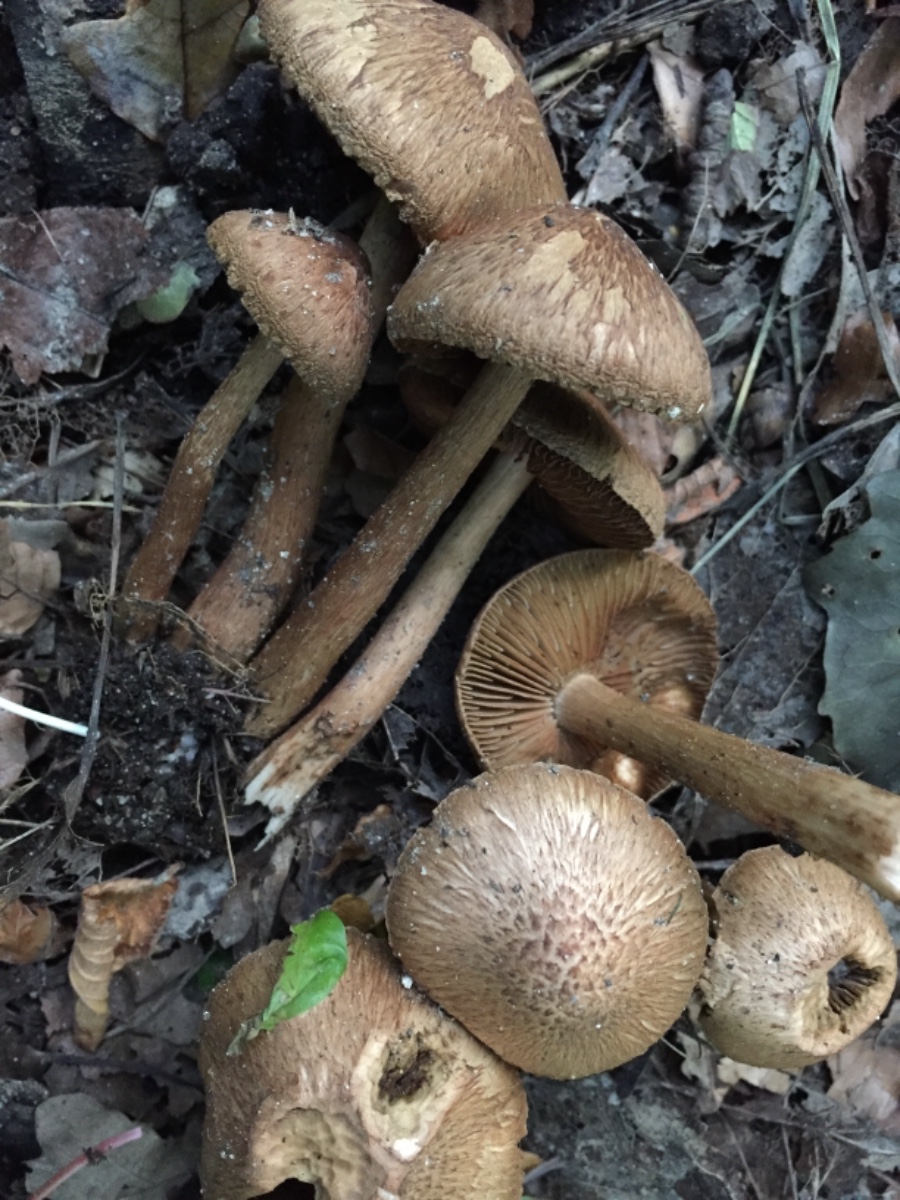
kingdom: Fungi
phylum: Basidiomycota
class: Agaricomycetes
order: Agaricales
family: Inocybaceae
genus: Inocybe
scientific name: Inocybe
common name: trævlhat
